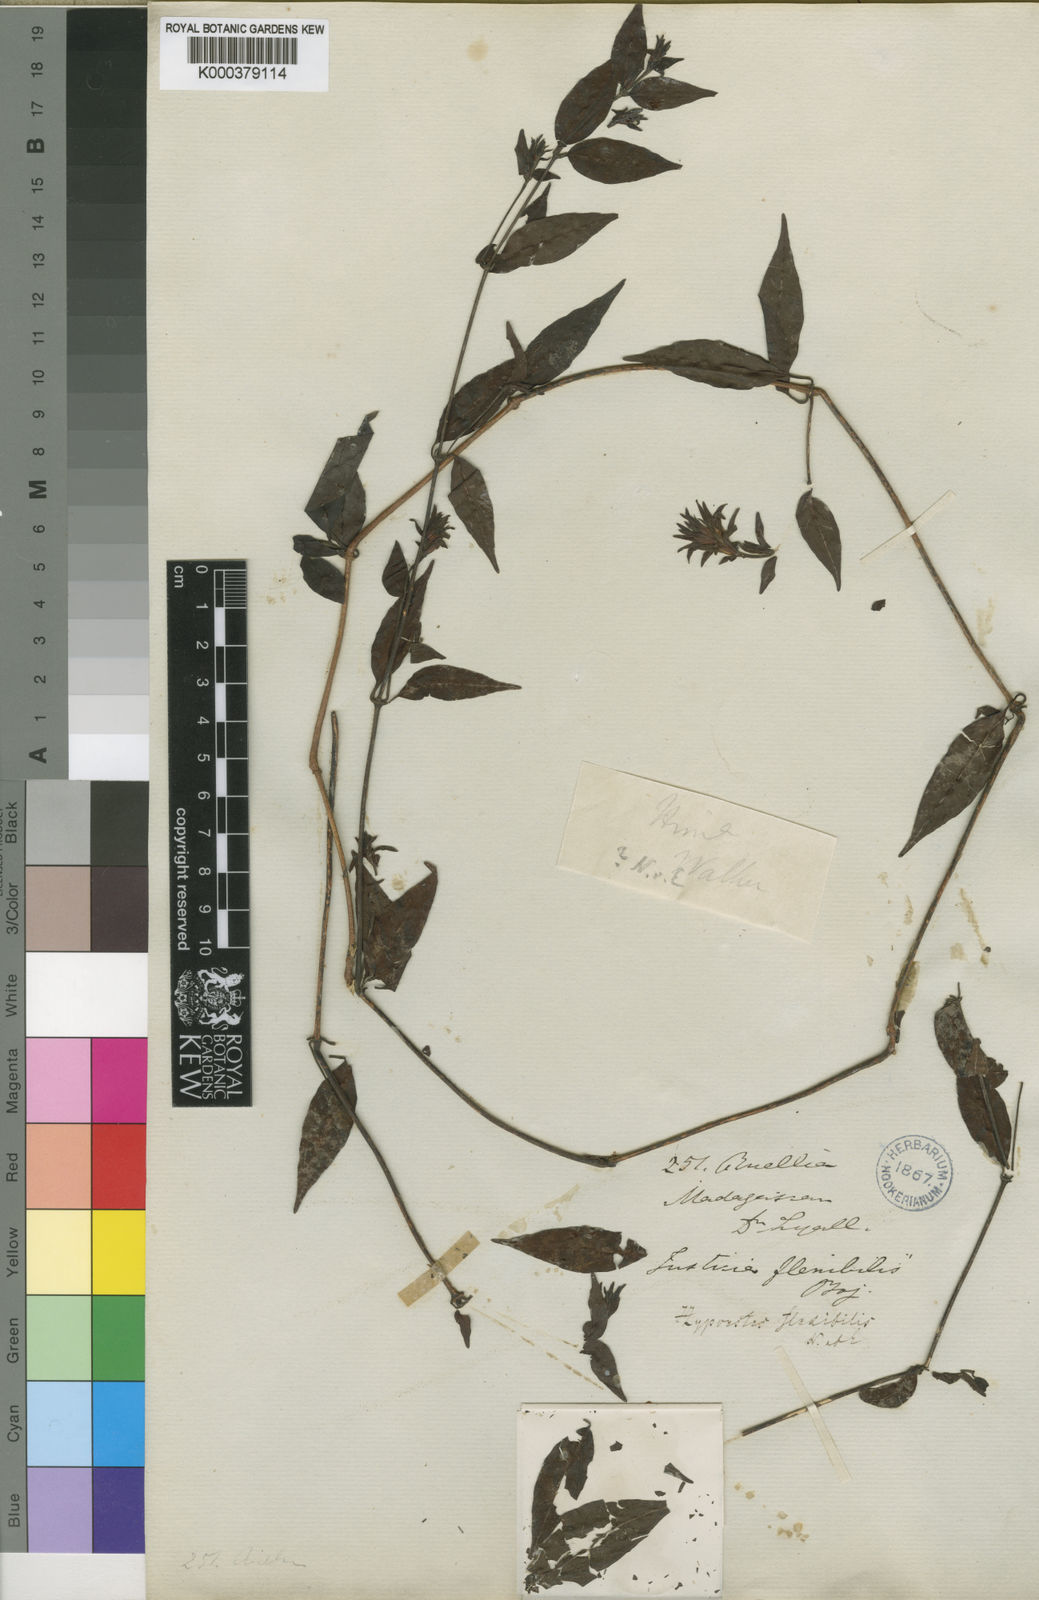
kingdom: Plantae
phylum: Tracheophyta
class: Magnoliopsida
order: Lamiales
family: Acanthaceae
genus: Hypoestes
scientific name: Hypoestes flexibilis
